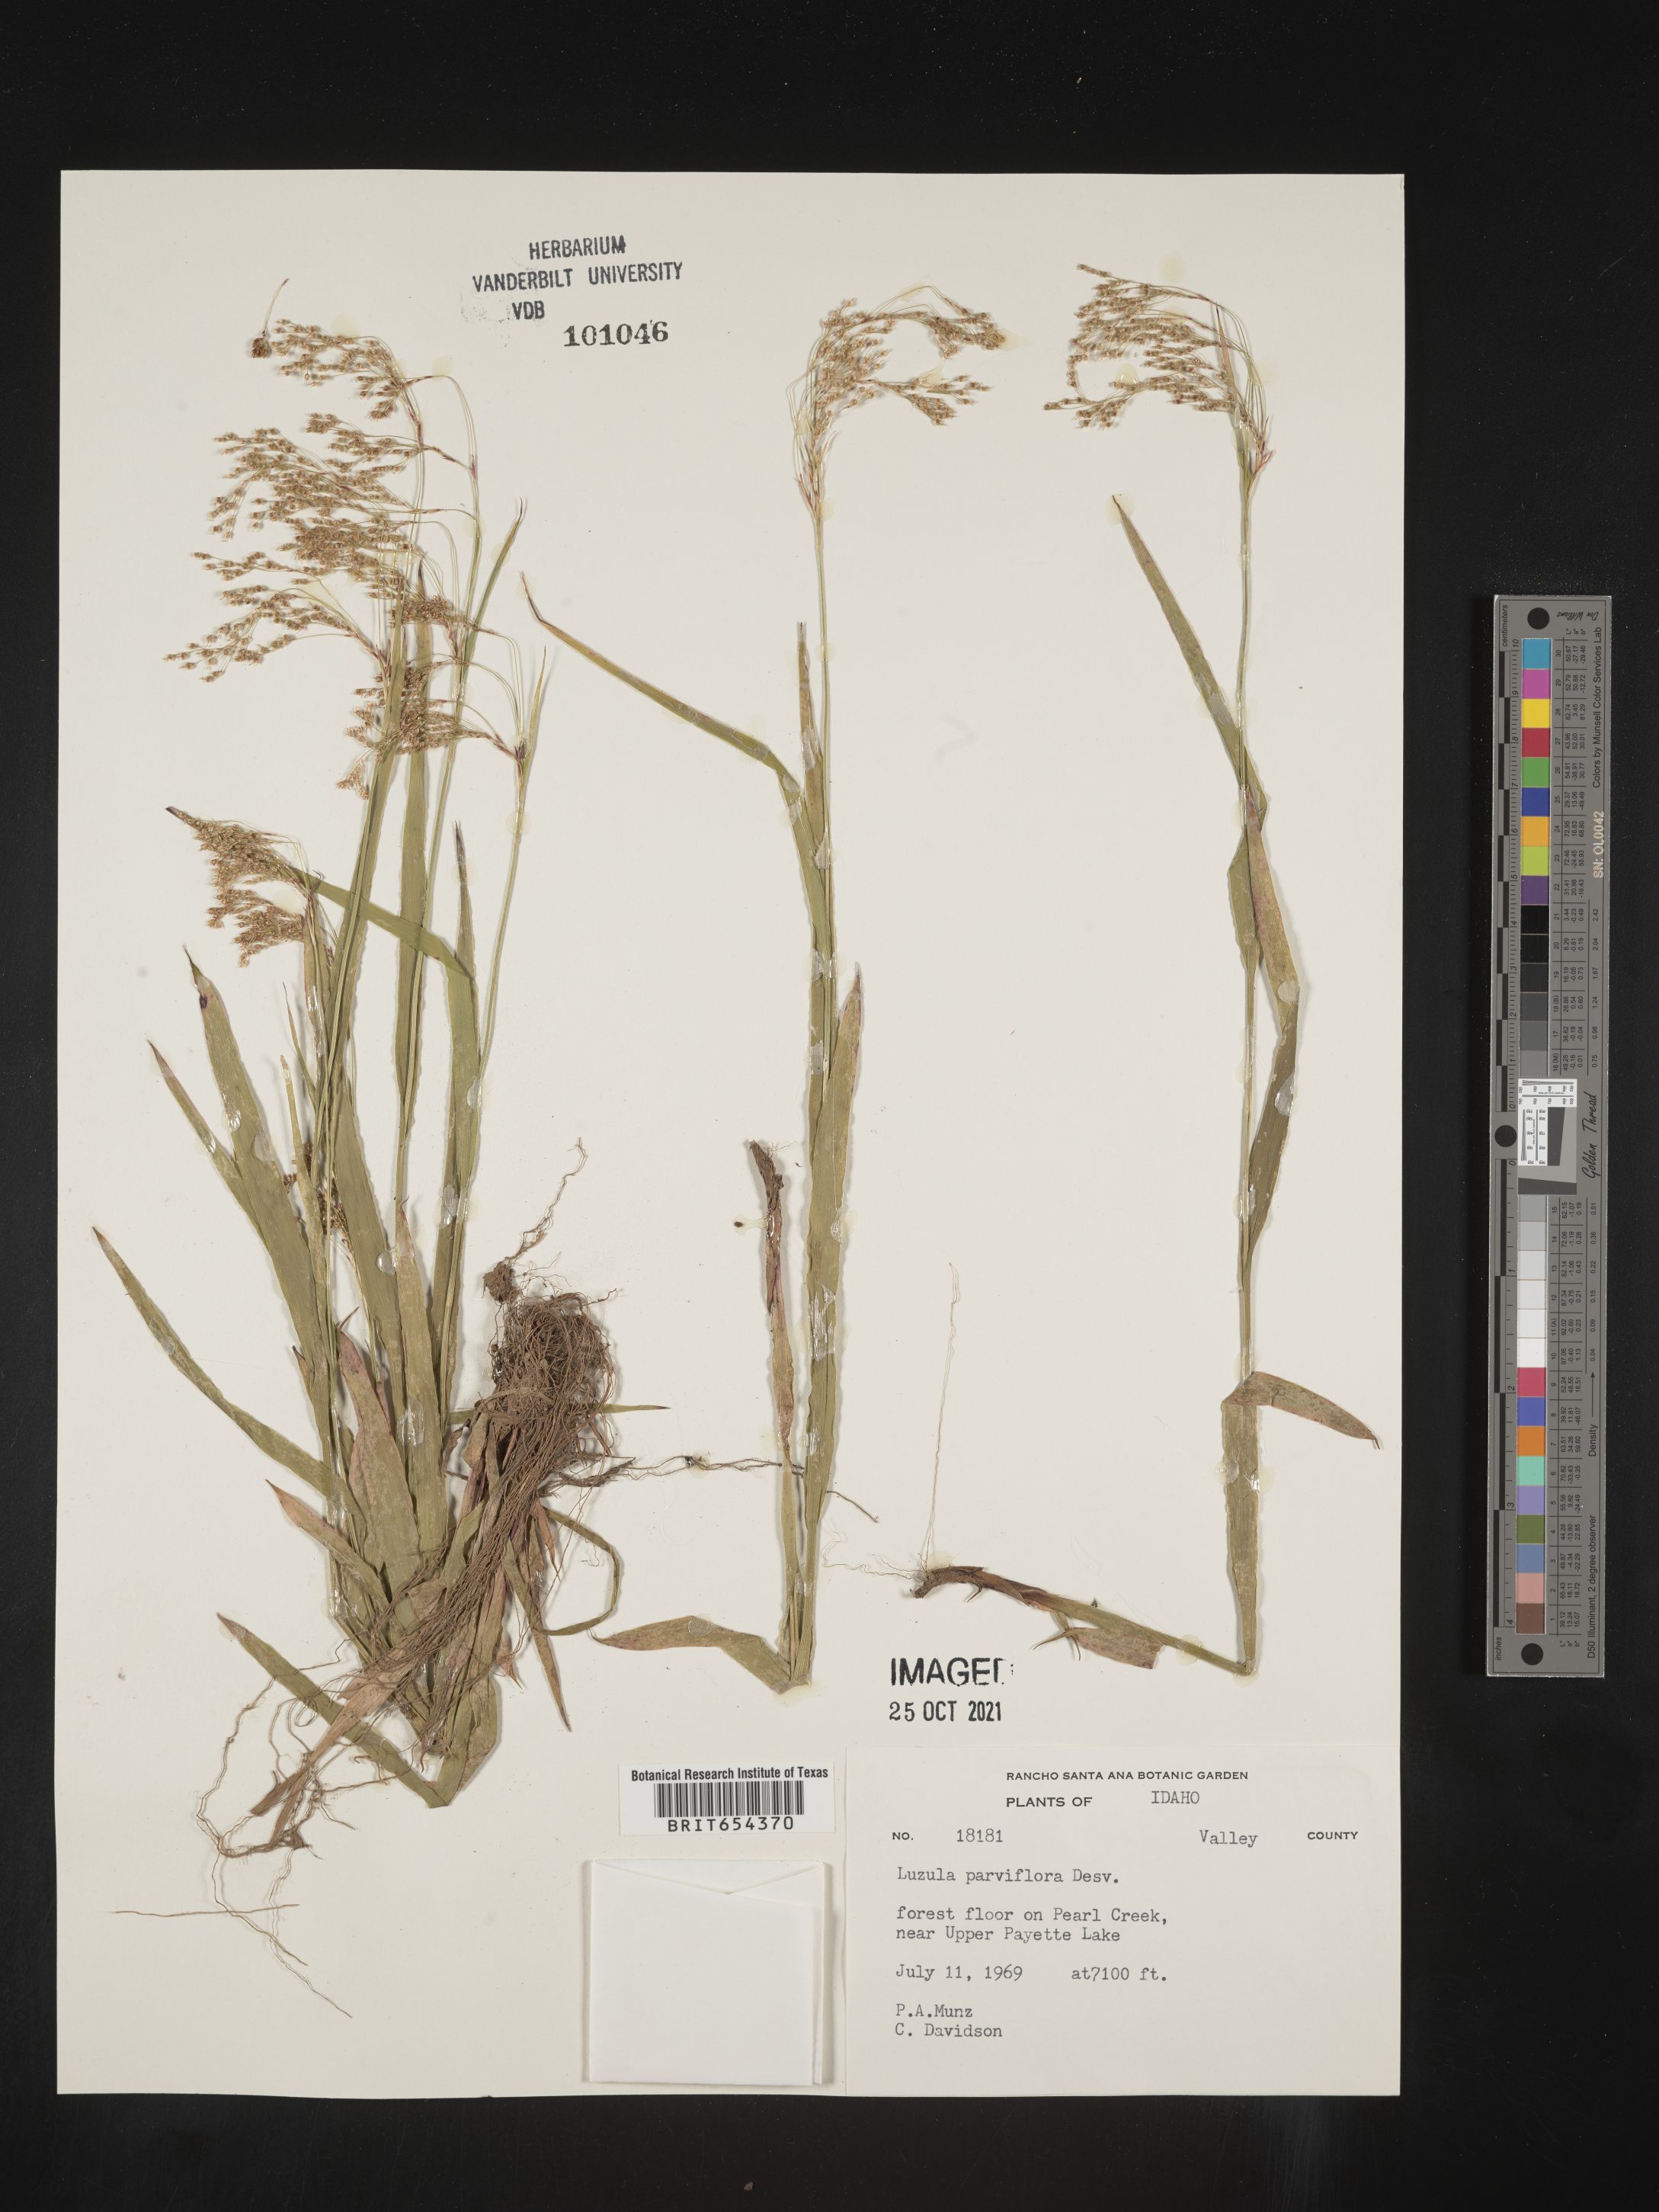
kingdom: Plantae
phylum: Tracheophyta
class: Liliopsida
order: Poales
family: Juncaceae
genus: Luzula
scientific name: Luzula parviflora
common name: Millet woodrush
